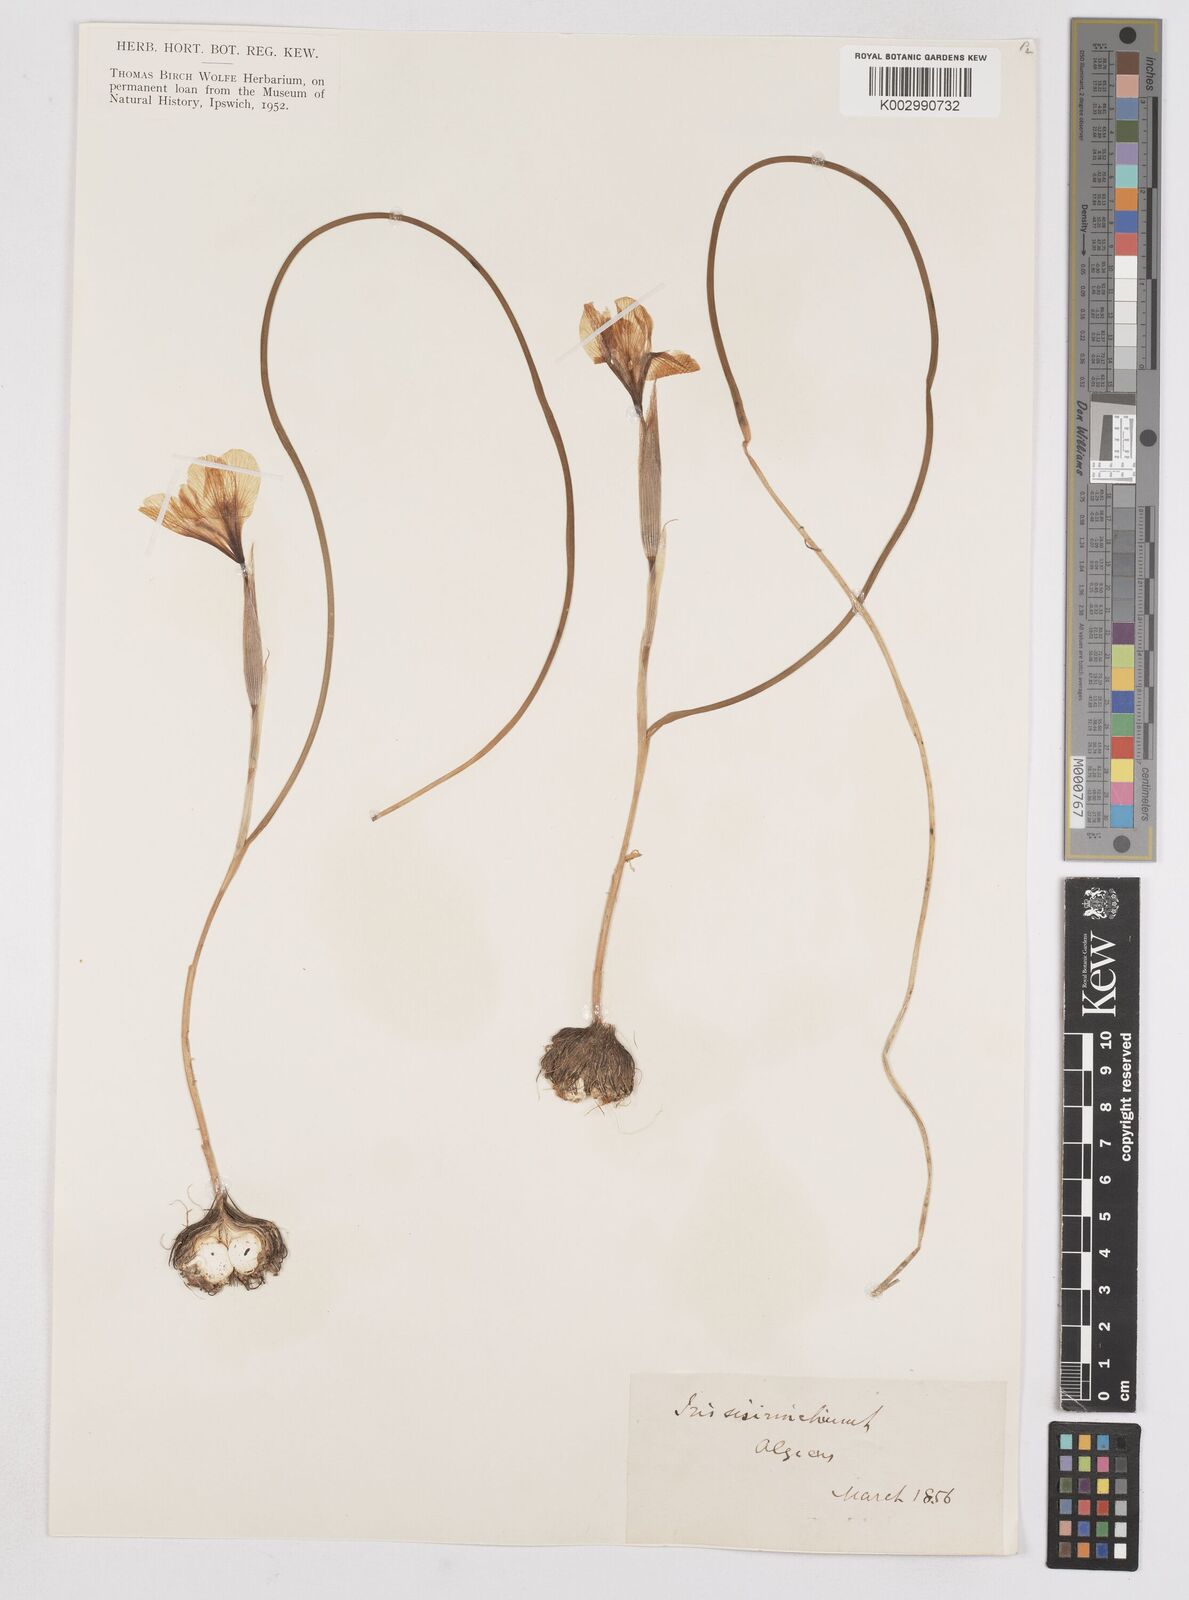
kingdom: Plantae
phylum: Tracheophyta
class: Liliopsida
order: Asparagales
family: Iridaceae
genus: Moraea
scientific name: Moraea sisyrinchium
